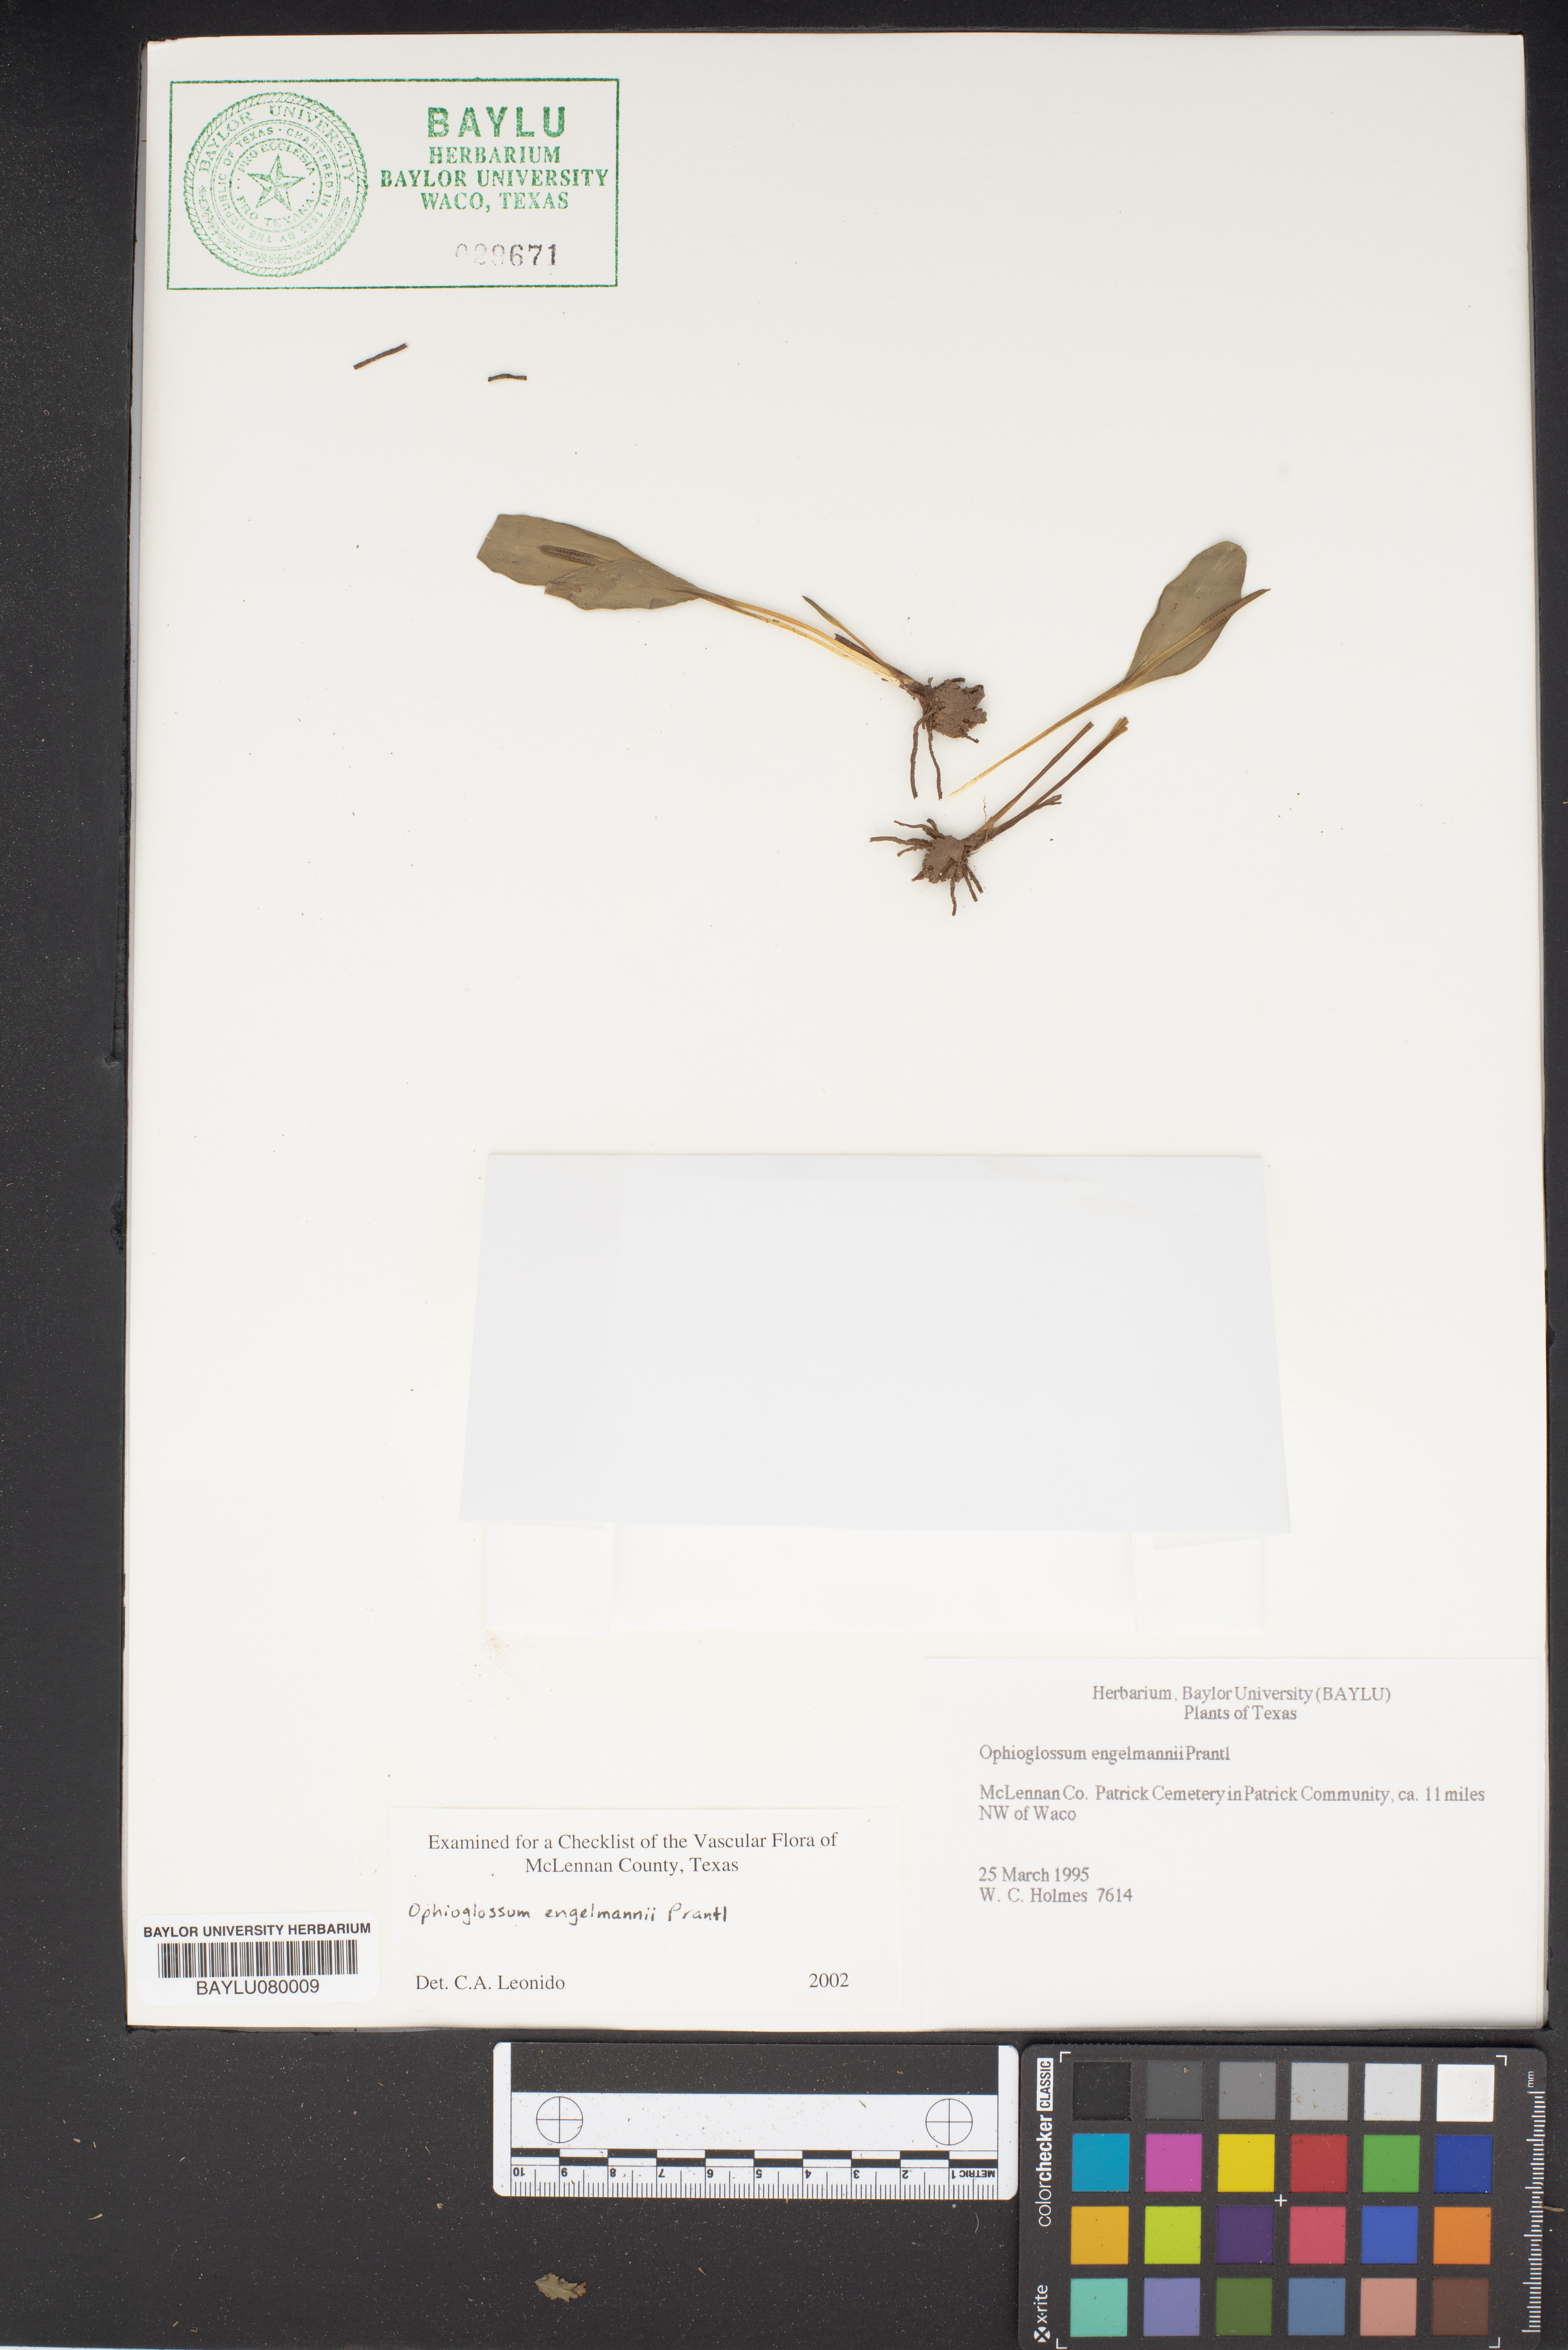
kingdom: Plantae
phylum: Tracheophyta
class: Polypodiopsida
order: Ophioglossales
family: Ophioglossaceae
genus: Ophioglossum
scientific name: Ophioglossum engelmannii
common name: Limestone adder's-tongue
